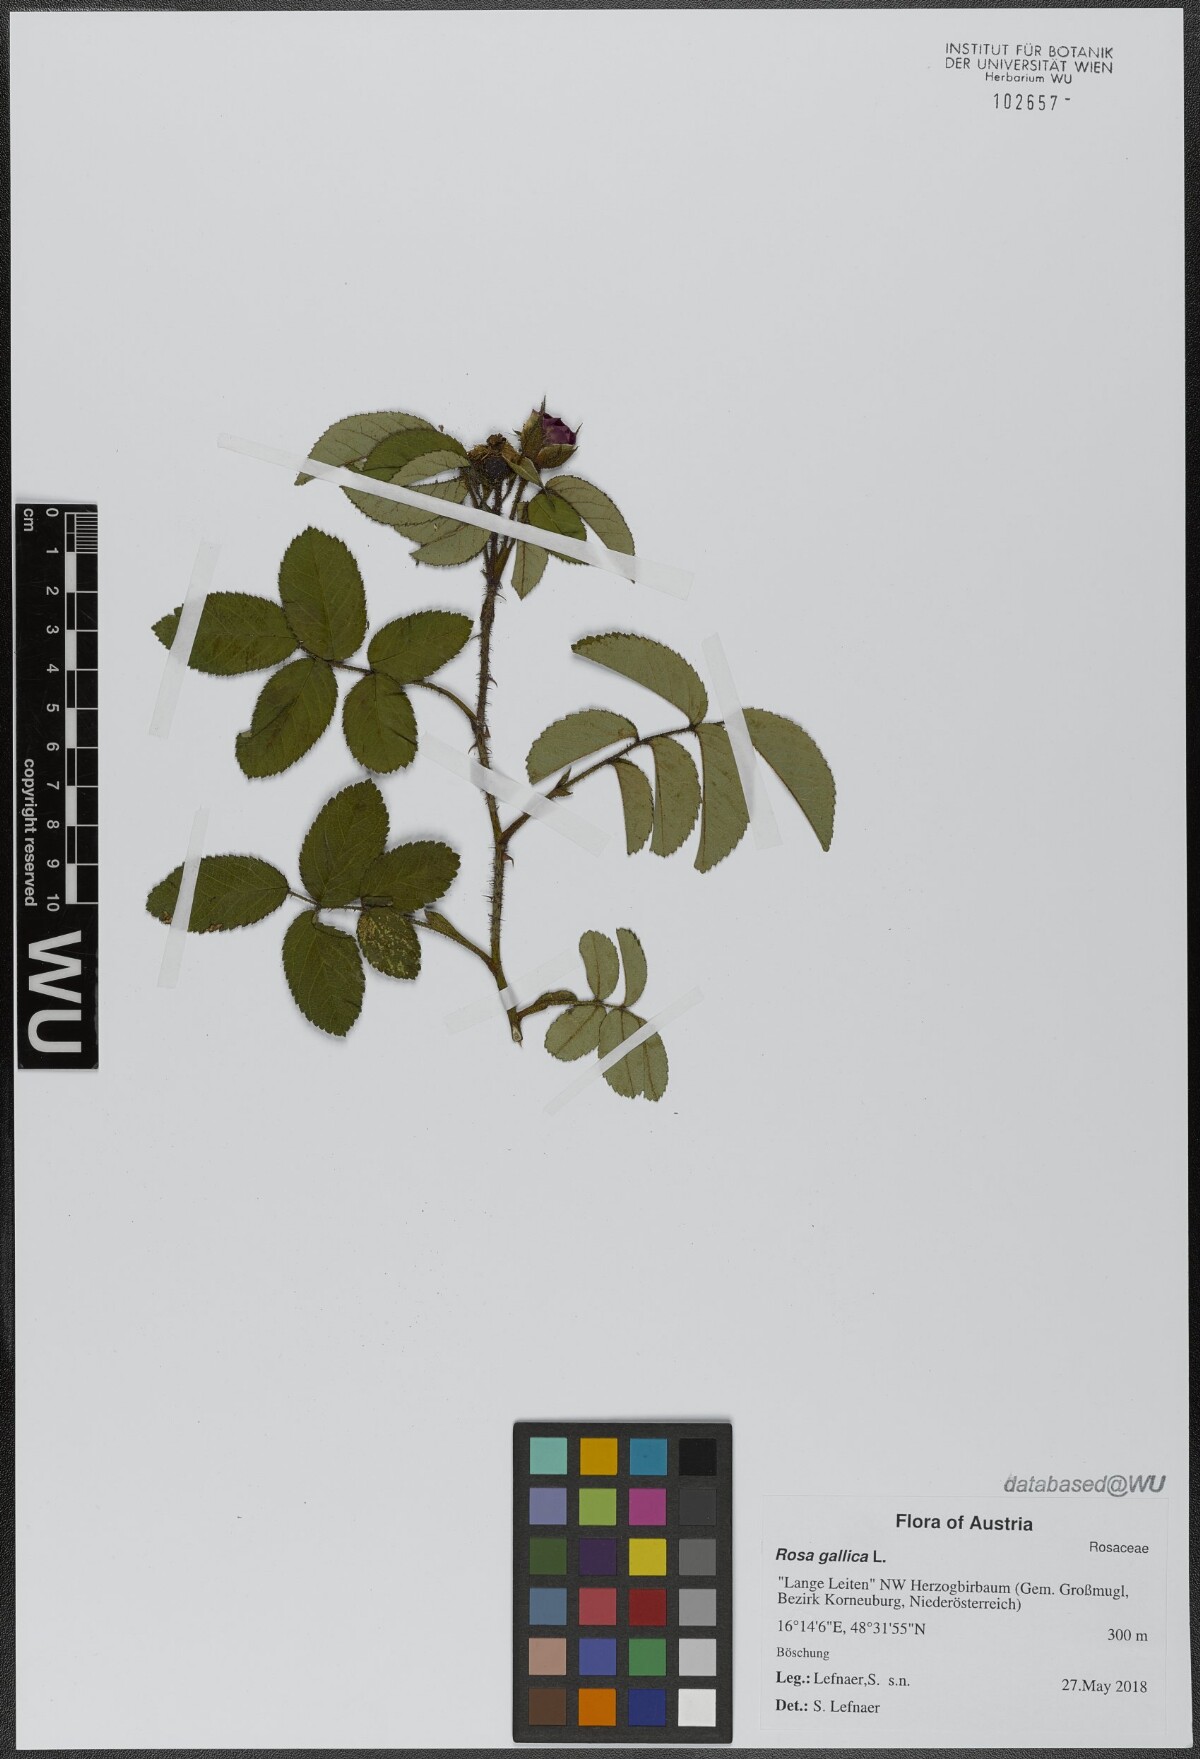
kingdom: Plantae
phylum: Tracheophyta
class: Magnoliopsida
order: Rosales
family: Rosaceae
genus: Rosa
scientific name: Rosa gallica
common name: French rose
